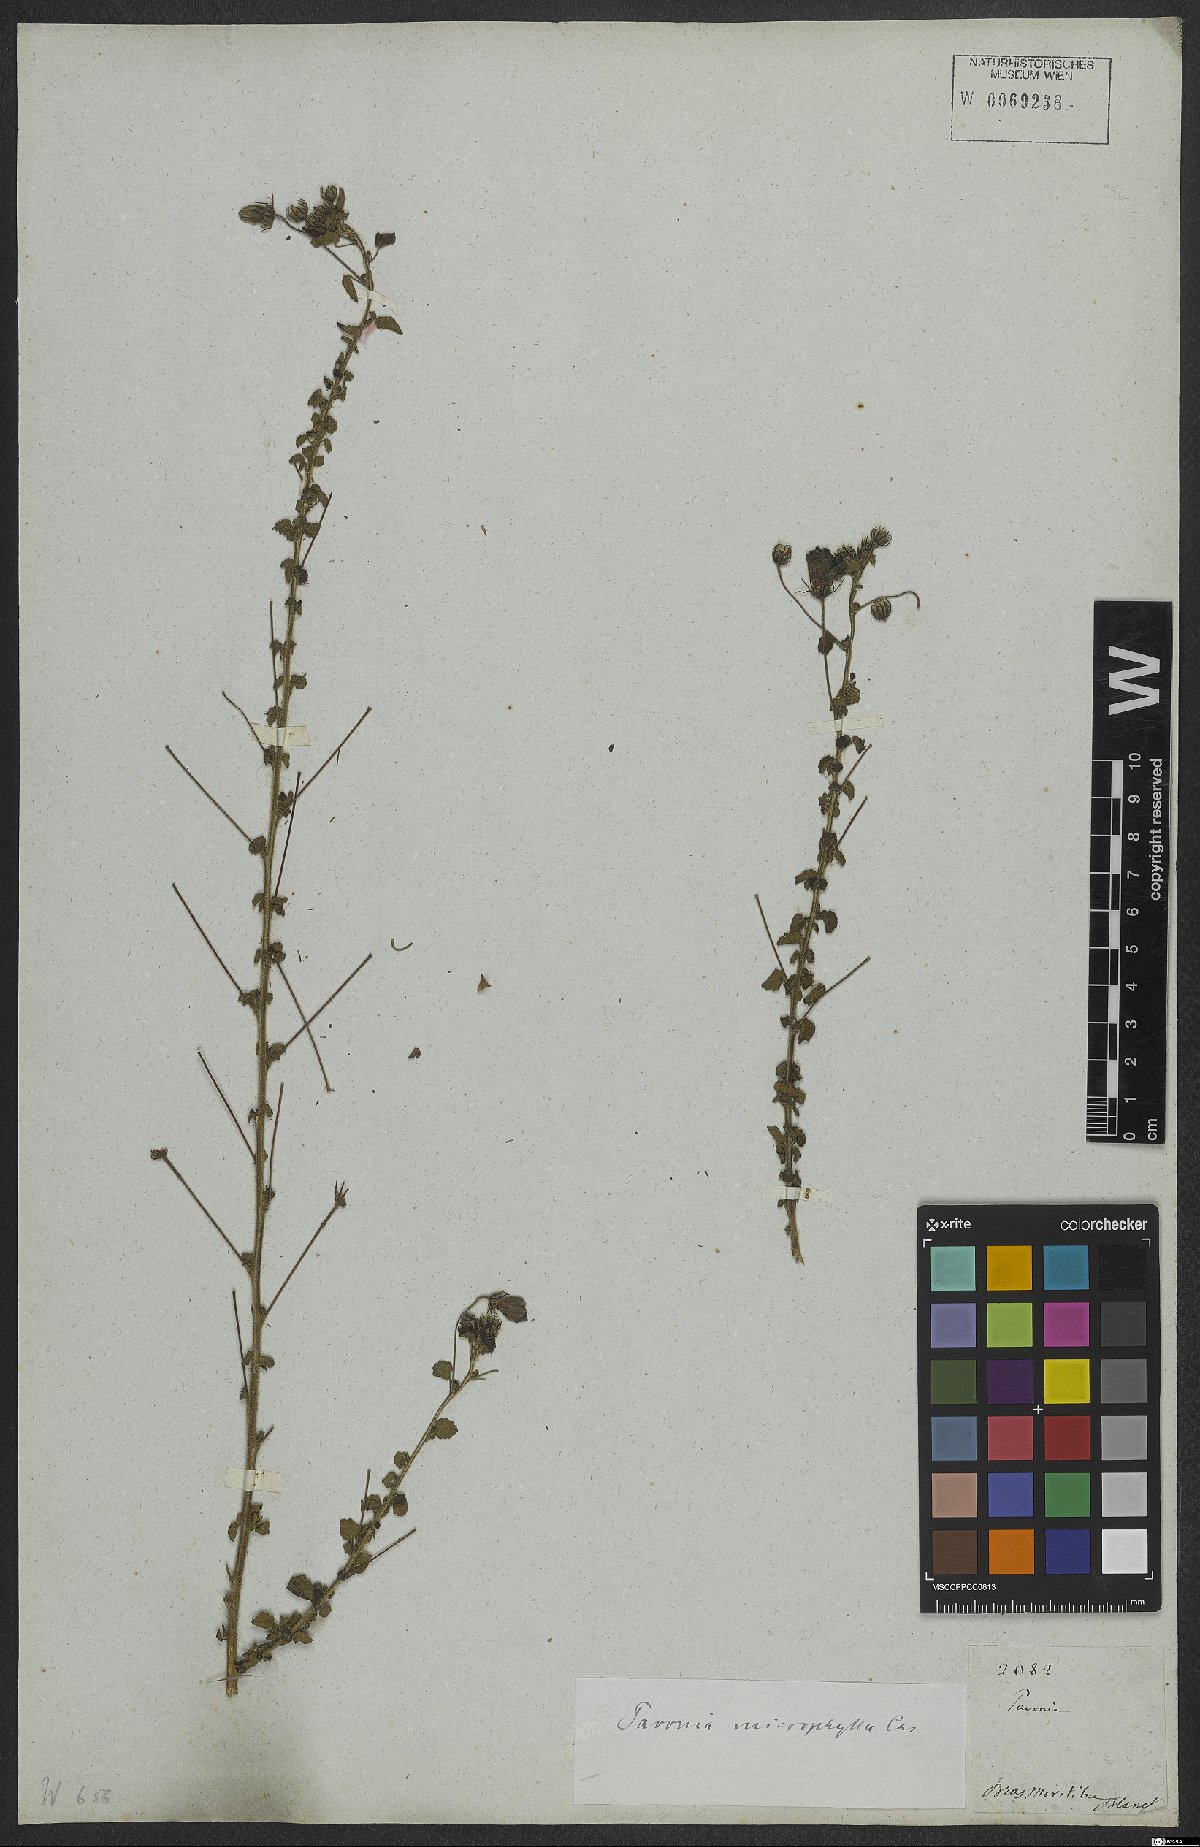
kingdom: Plantae
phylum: Tracheophyta
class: Magnoliopsida
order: Malvales
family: Malvaceae
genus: Pavonia
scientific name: Pavonia dregei
